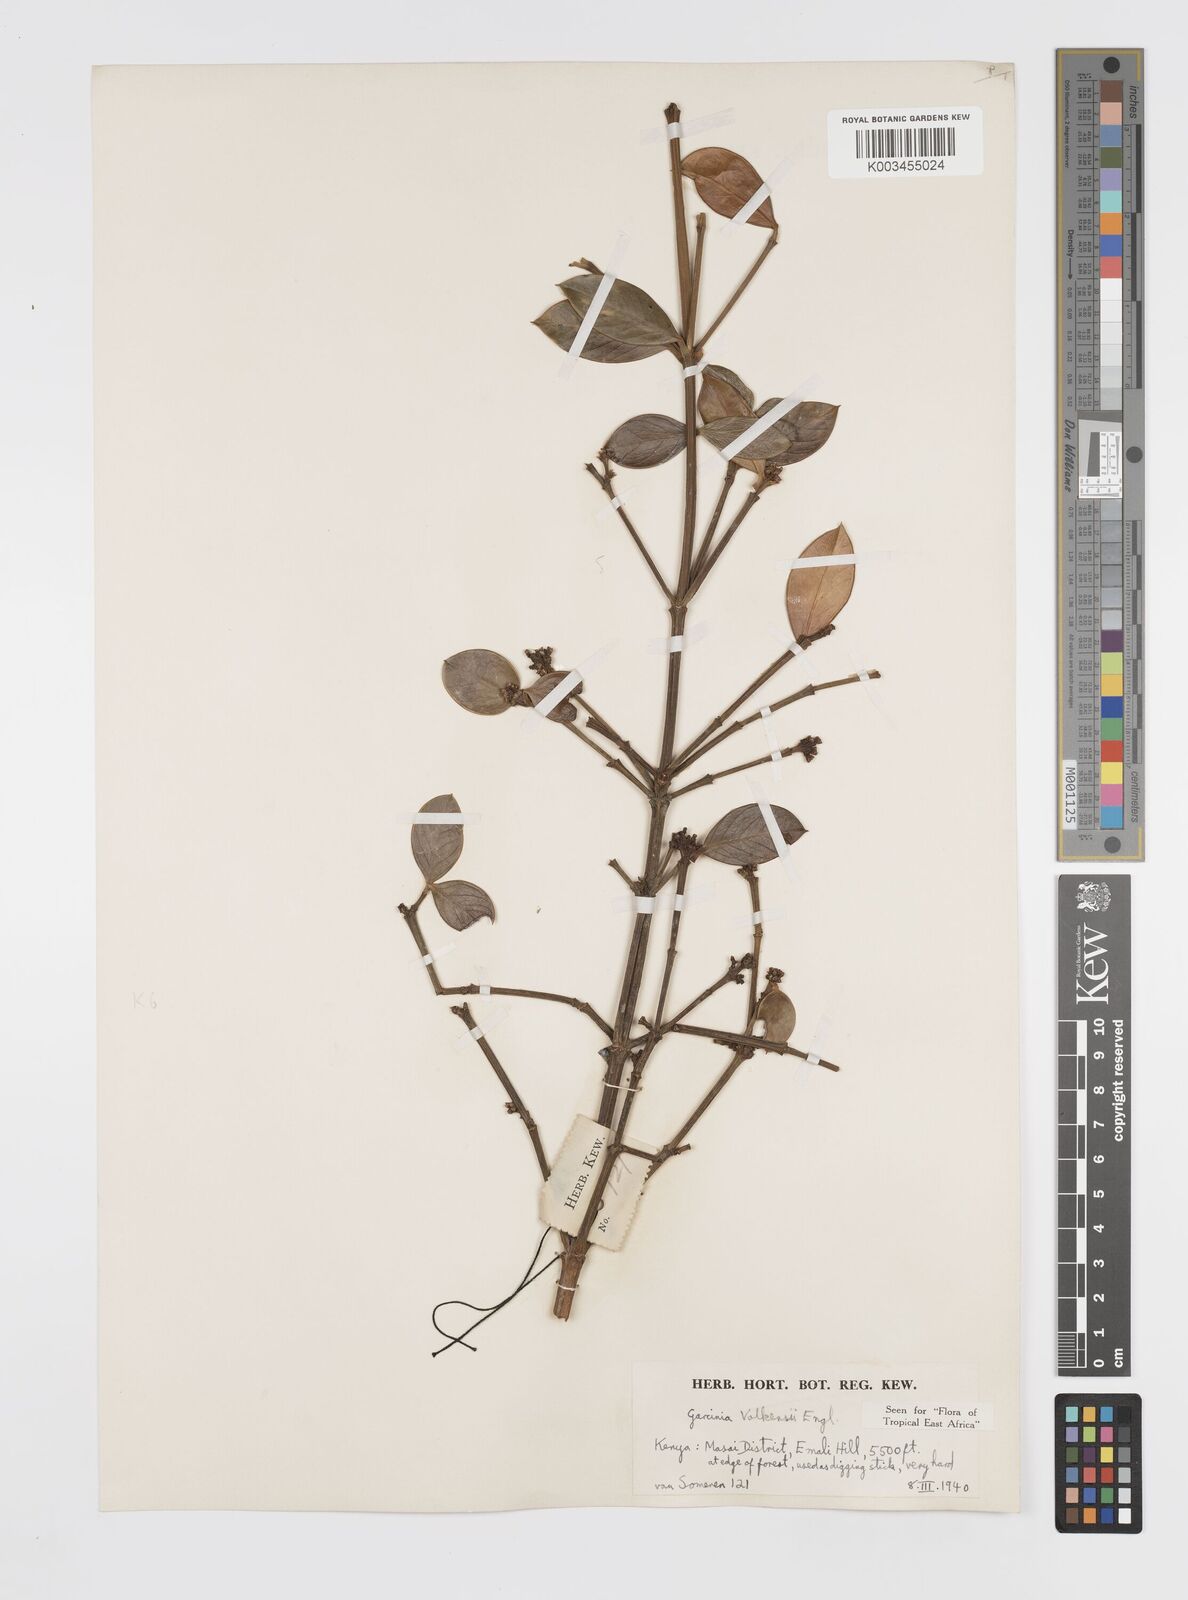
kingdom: Plantae
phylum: Tracheophyta
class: Magnoliopsida
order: Malpighiales
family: Clusiaceae
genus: Garcinia
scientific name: Garcinia volkensii
